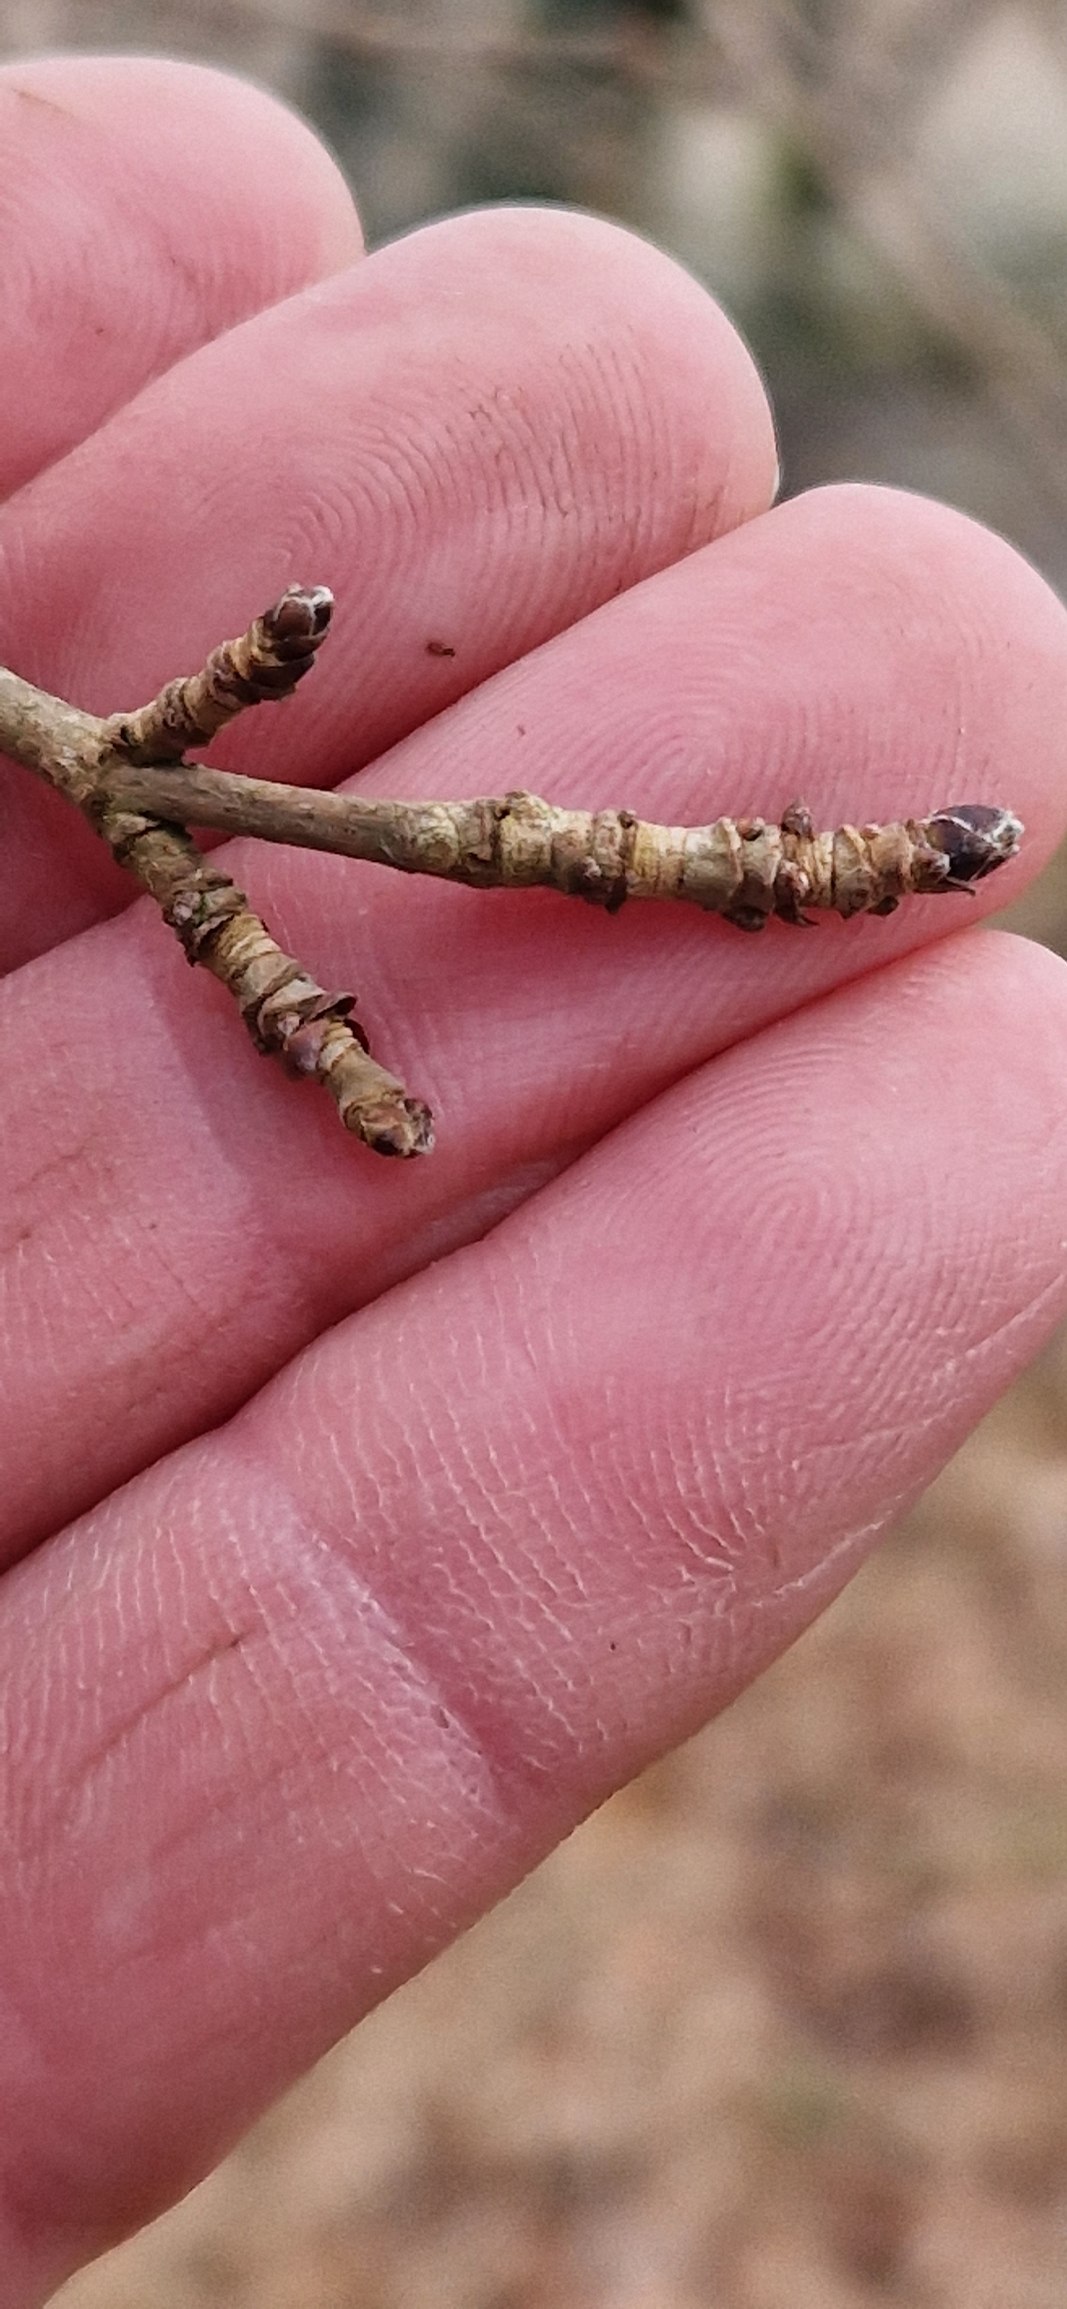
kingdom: Plantae
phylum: Tracheophyta
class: Magnoliopsida
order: Sapindales
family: Sapindaceae
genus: Acer
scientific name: Acer campestre
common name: Navr
